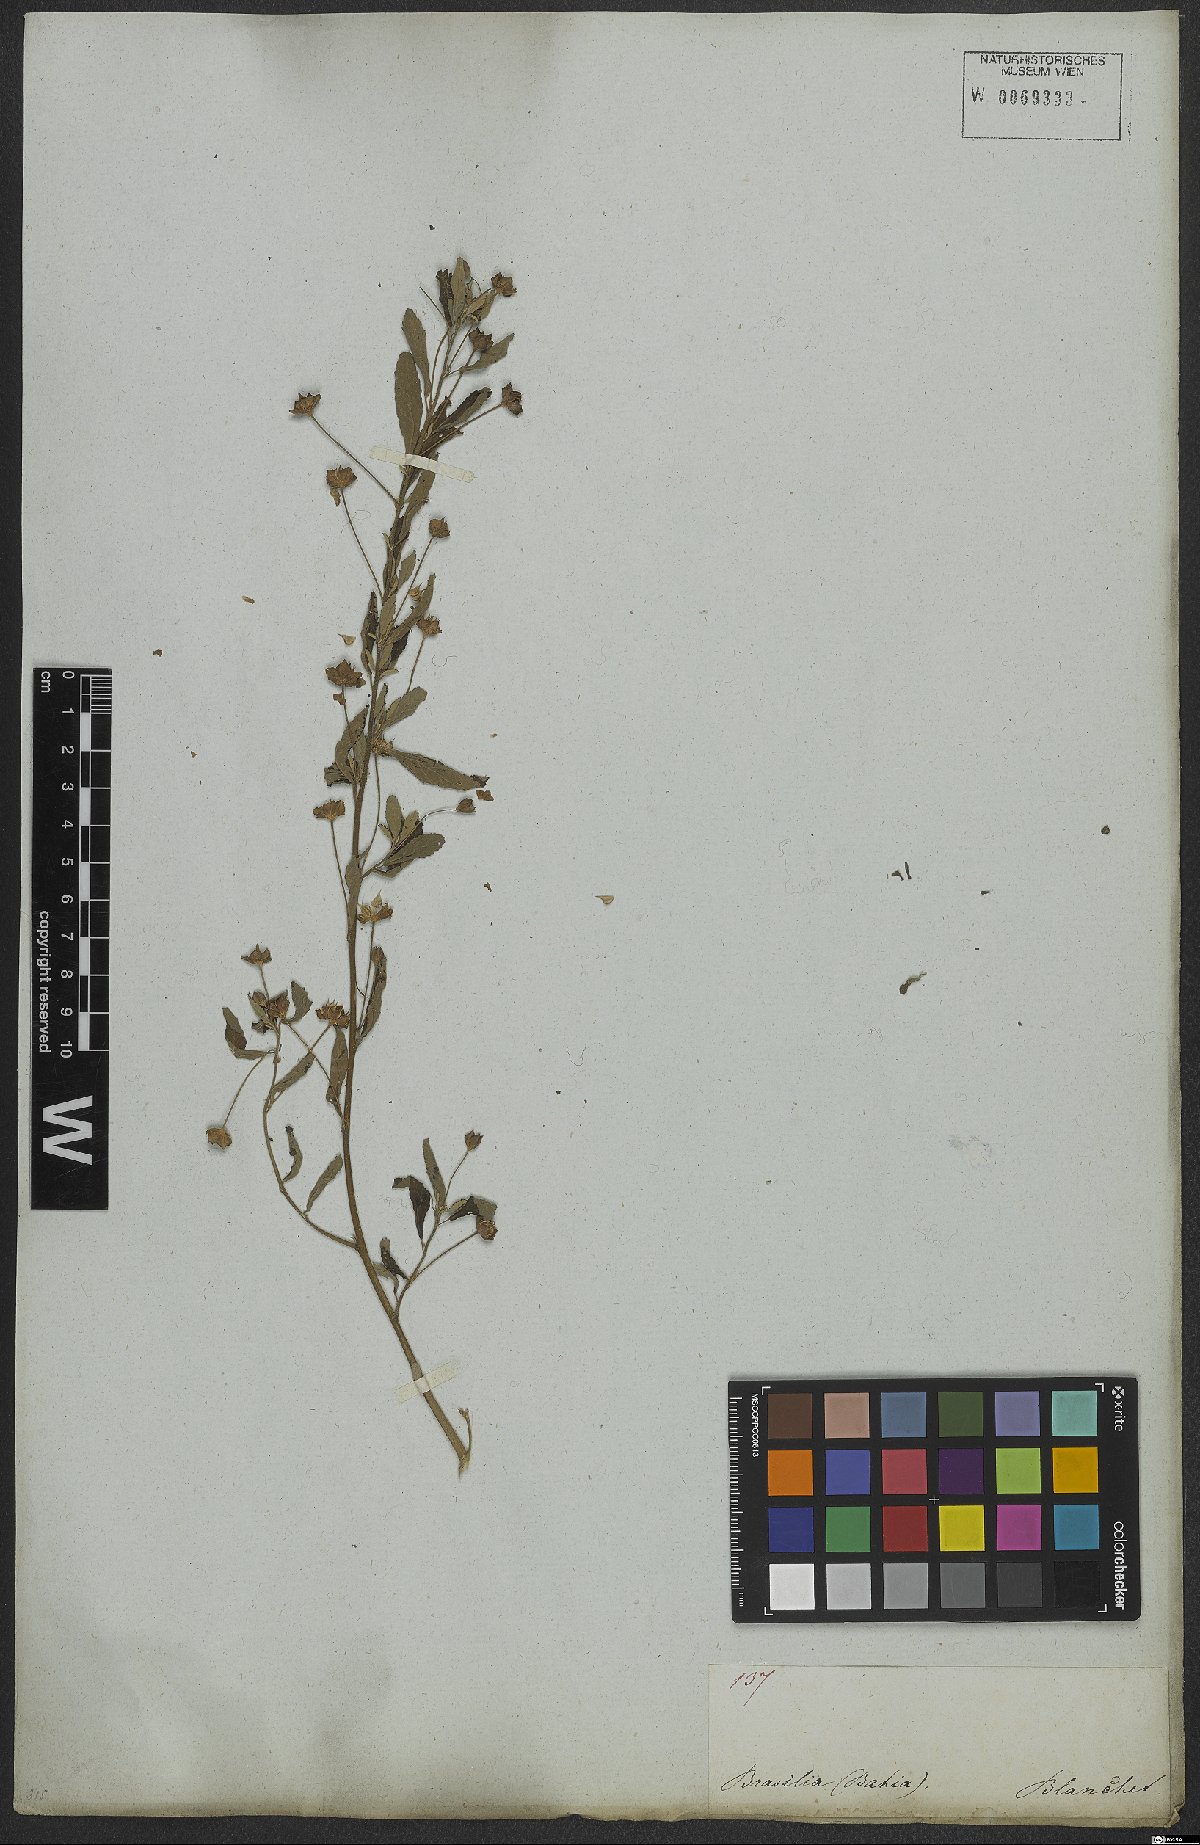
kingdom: Plantae
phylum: Tracheophyta
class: Magnoliopsida
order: Malvales
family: Malvaceae
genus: Sida
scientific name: Sida rhombifolia
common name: Queensland-hemp
